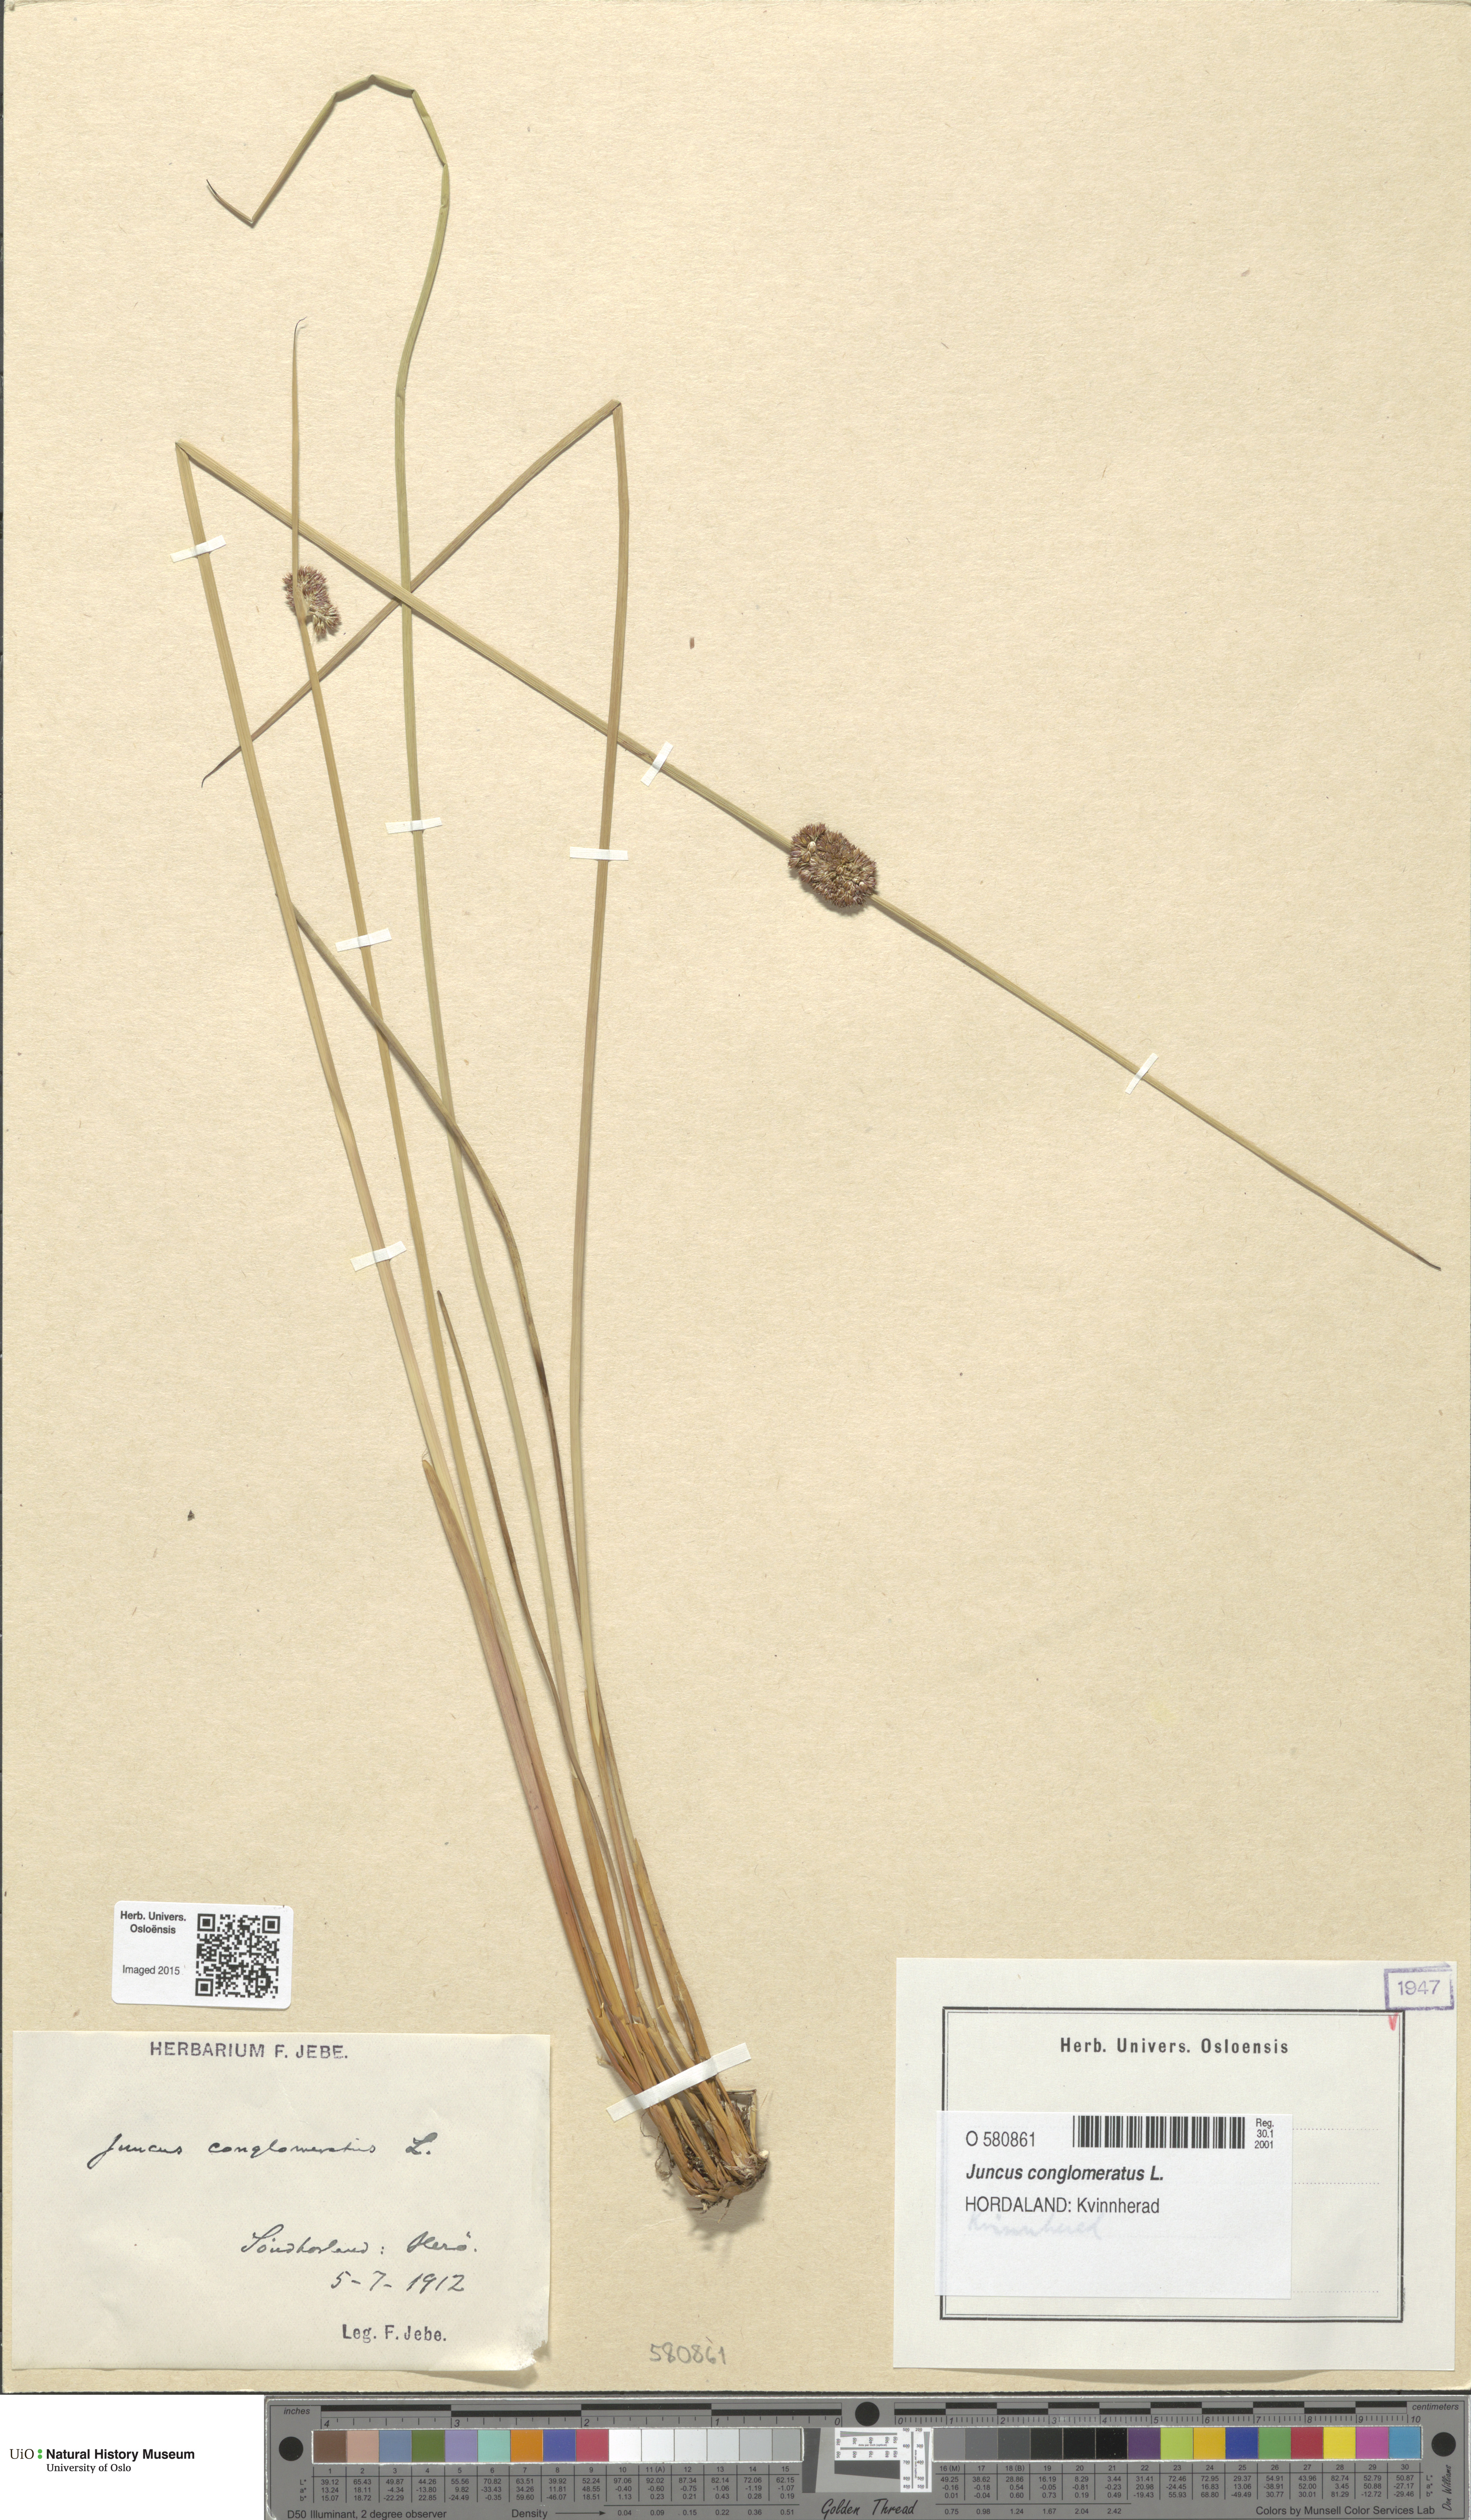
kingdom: Plantae
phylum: Tracheophyta
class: Liliopsida
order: Poales
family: Juncaceae
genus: Juncus
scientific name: Juncus conglomeratus
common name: Compact rush
